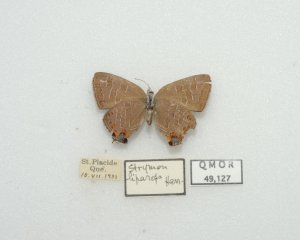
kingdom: Animalia
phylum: Arthropoda
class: Insecta
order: Lepidoptera
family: Lycaenidae
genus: Satyrium
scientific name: Satyrium liparops
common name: Striped Hairstreak
